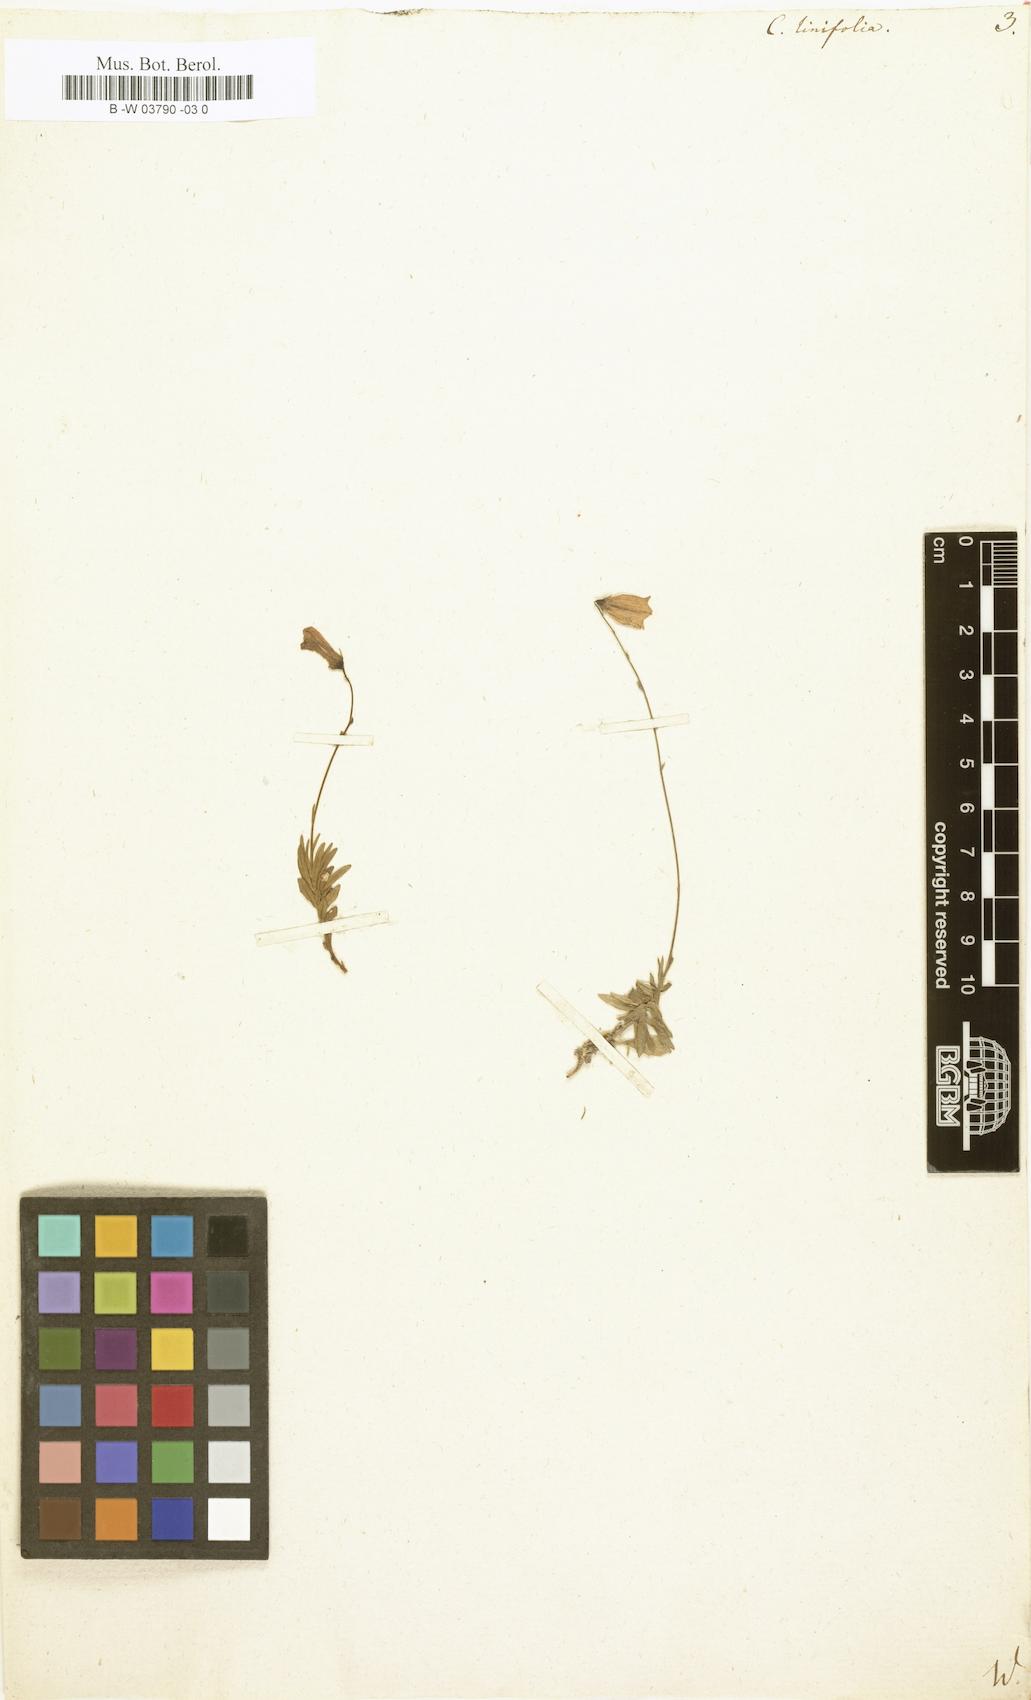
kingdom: Plantae
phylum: Tracheophyta
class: Magnoliopsida
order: Asterales
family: Campanulaceae
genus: Campanula
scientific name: Campanula
